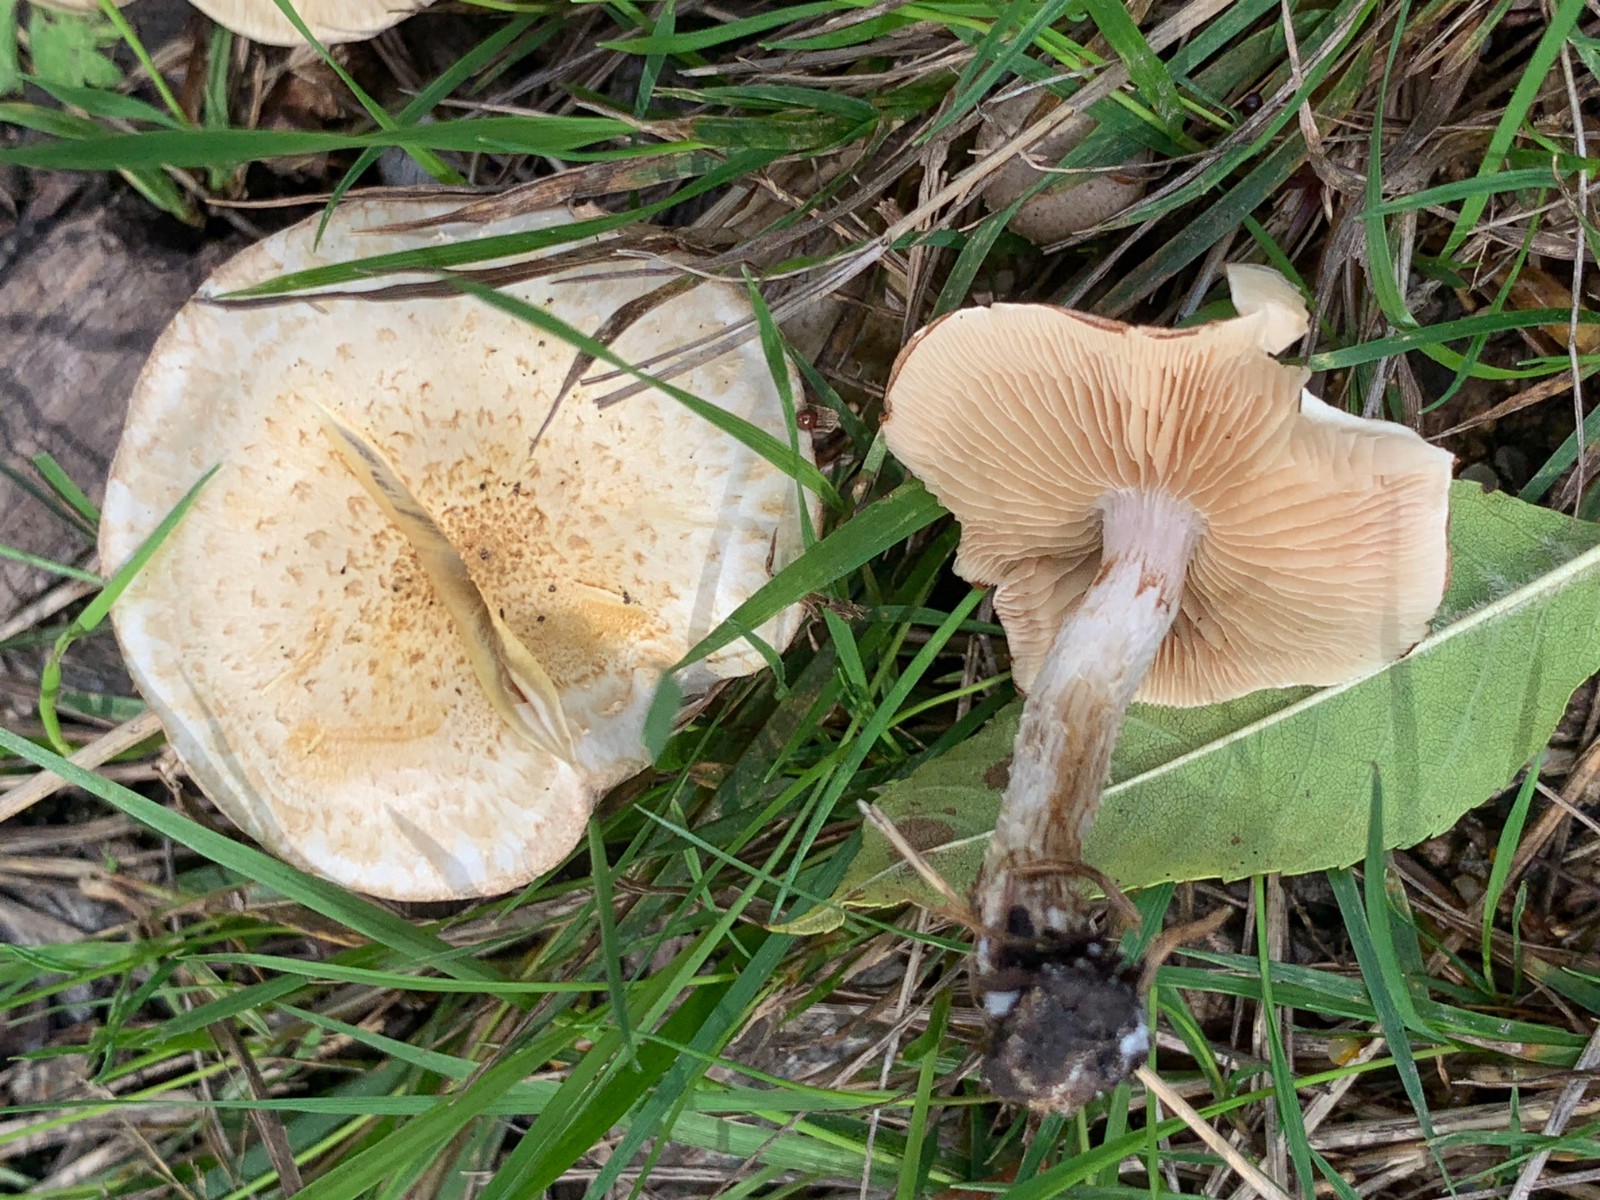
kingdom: Fungi
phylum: Basidiomycota
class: Agaricomycetes
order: Agaricales
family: Strophariaceae
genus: Pholiota
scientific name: Pholiota gummosa
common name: grøngul skælhat
